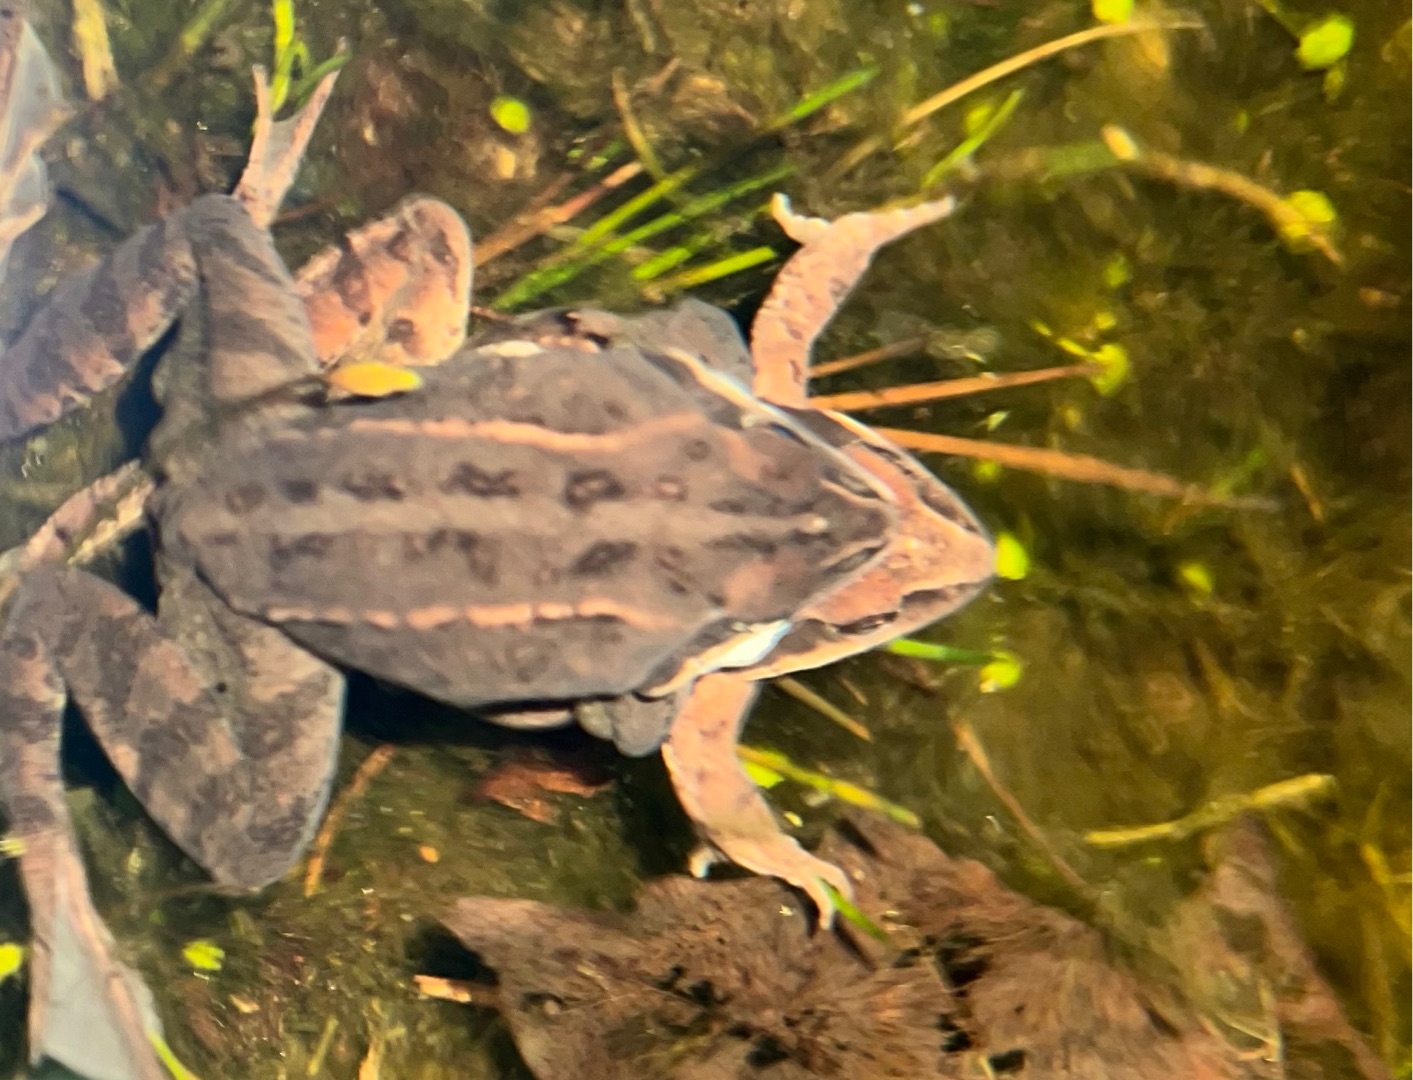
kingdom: Animalia
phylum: Chordata
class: Amphibia
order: Anura
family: Ranidae
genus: Rana
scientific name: Rana arvalis
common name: Spidssnudet frø
